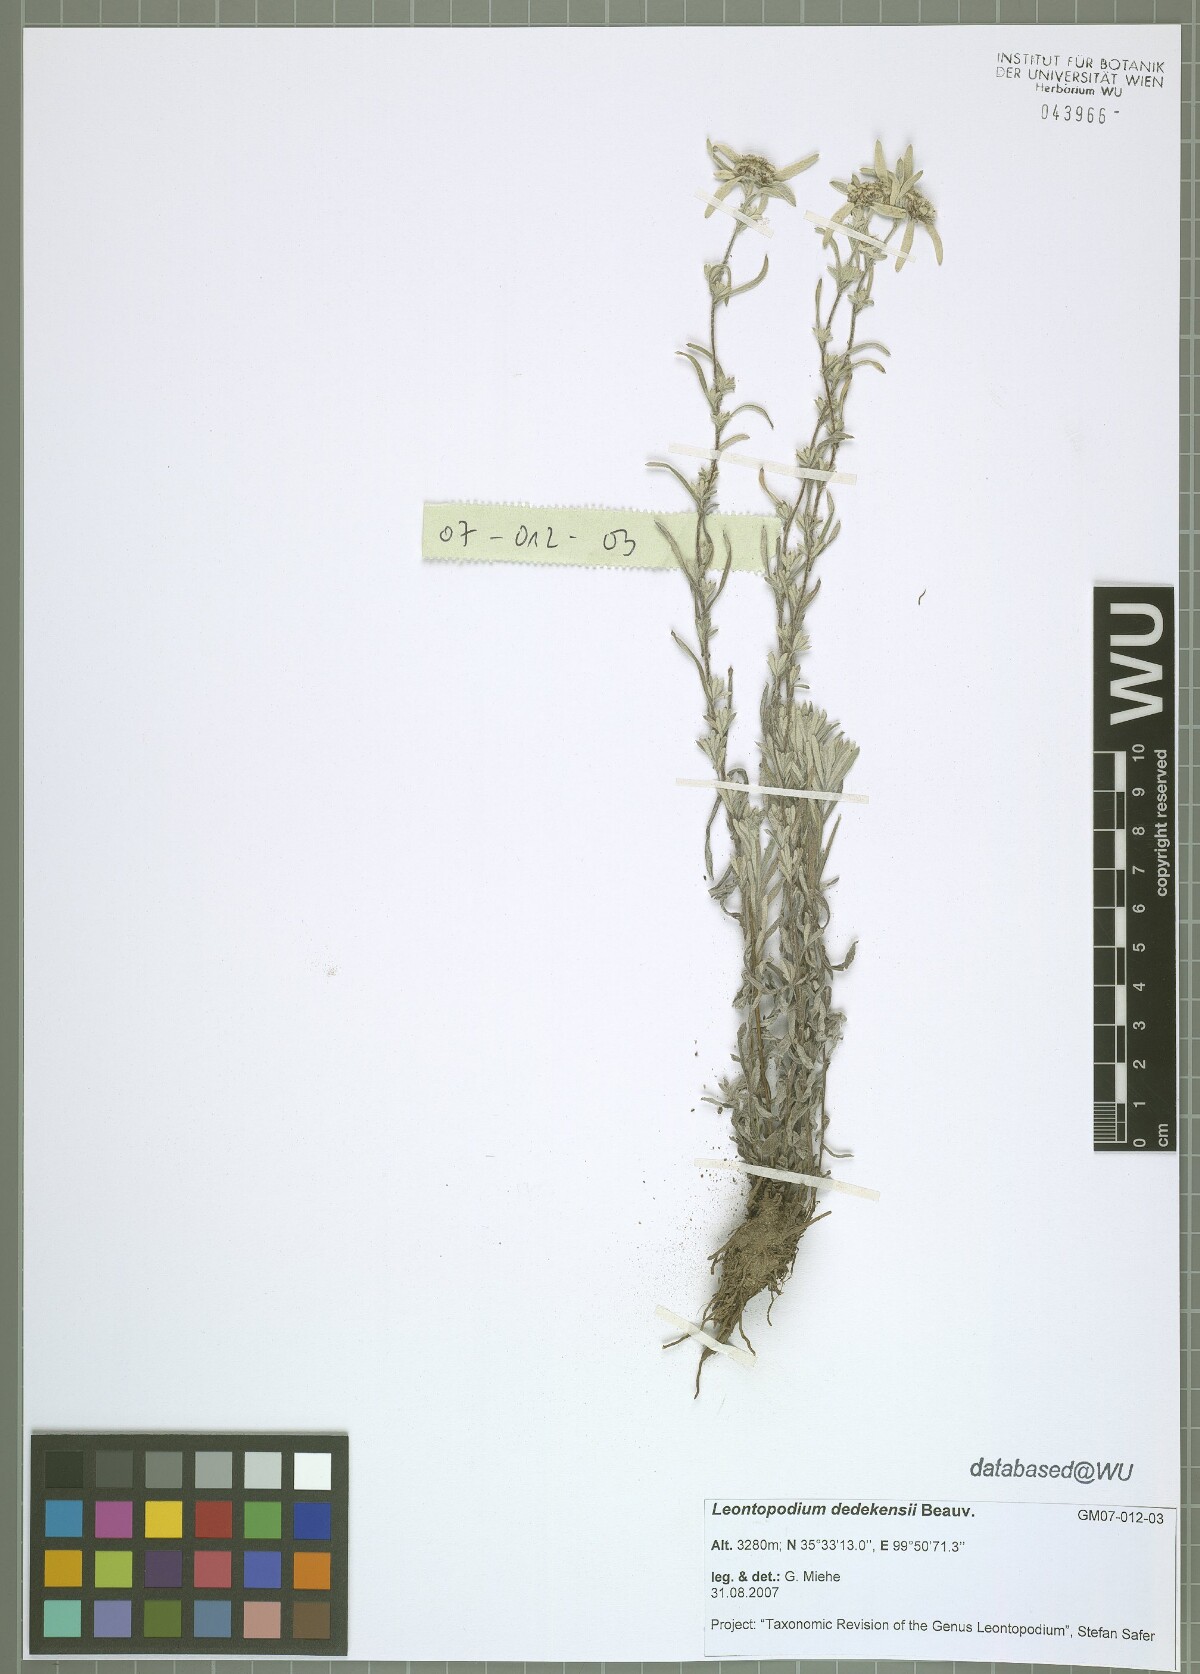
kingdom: Plantae
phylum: Tracheophyta
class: Magnoliopsida
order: Asterales
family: Asteraceae
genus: Leontopodium
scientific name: Leontopodium dedekensii
